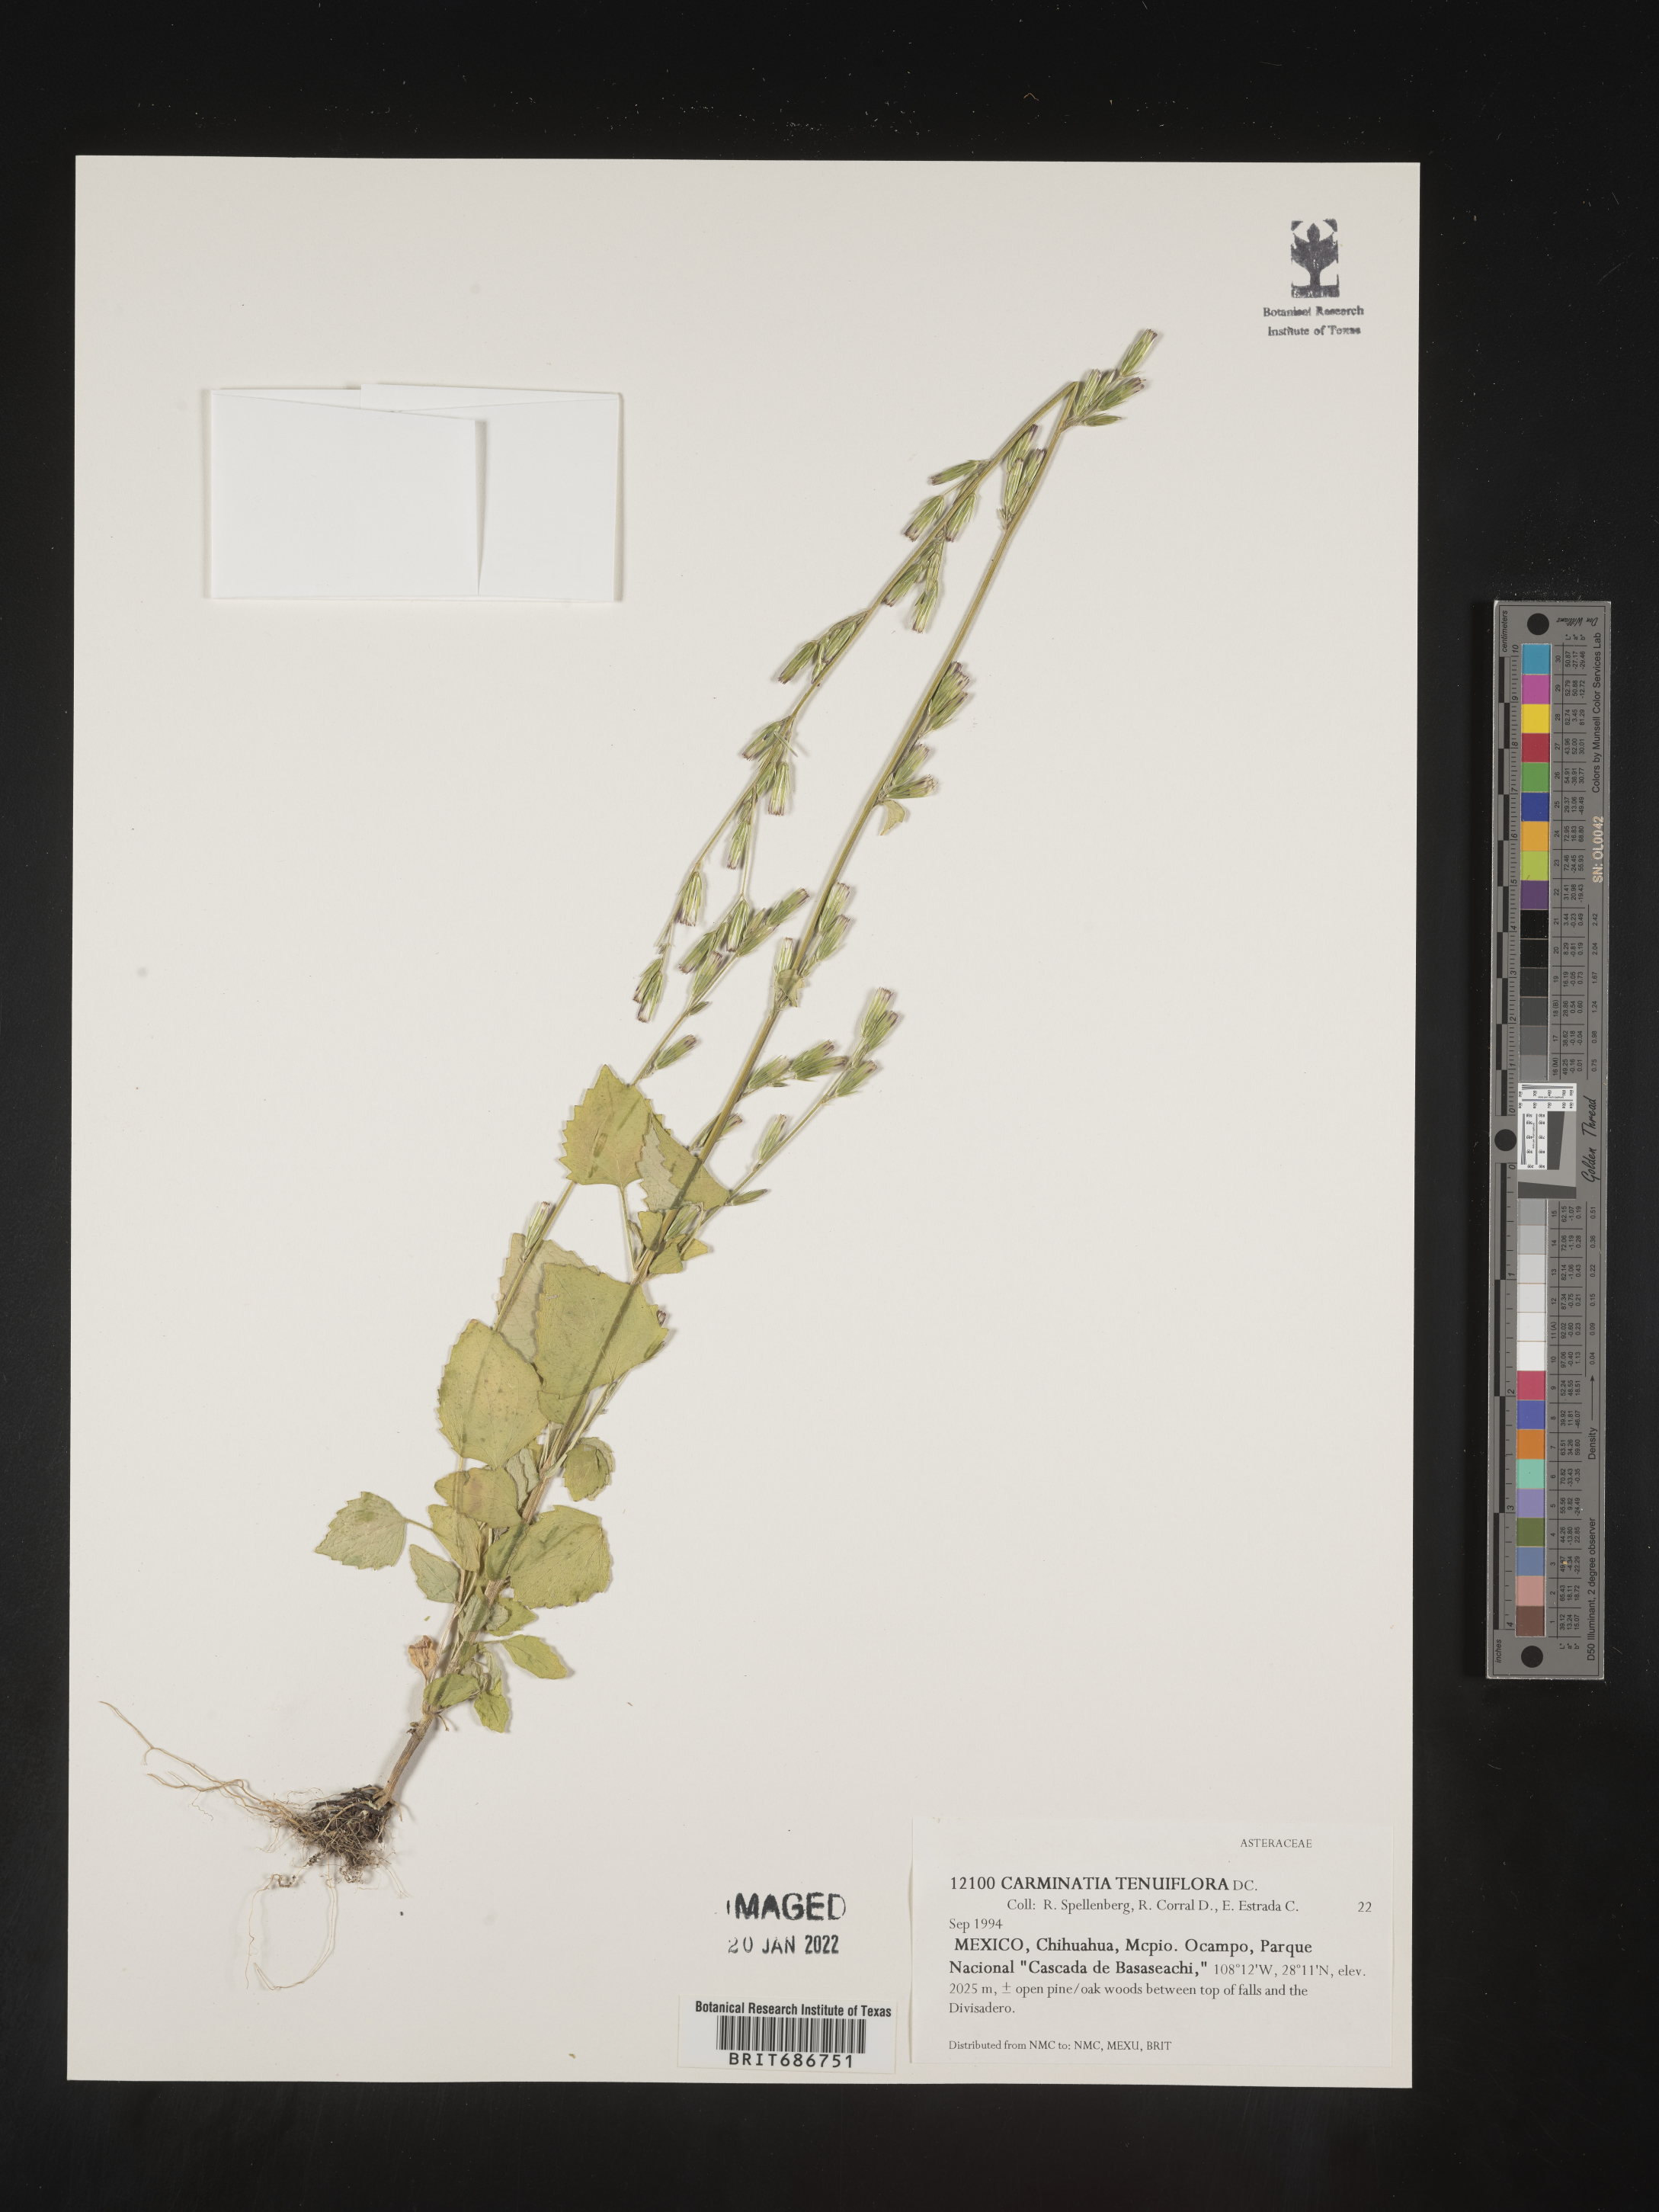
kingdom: Plantae
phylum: Tracheophyta
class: Magnoliopsida
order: Asterales
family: Asteraceae
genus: Carminatia
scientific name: Carminatia
